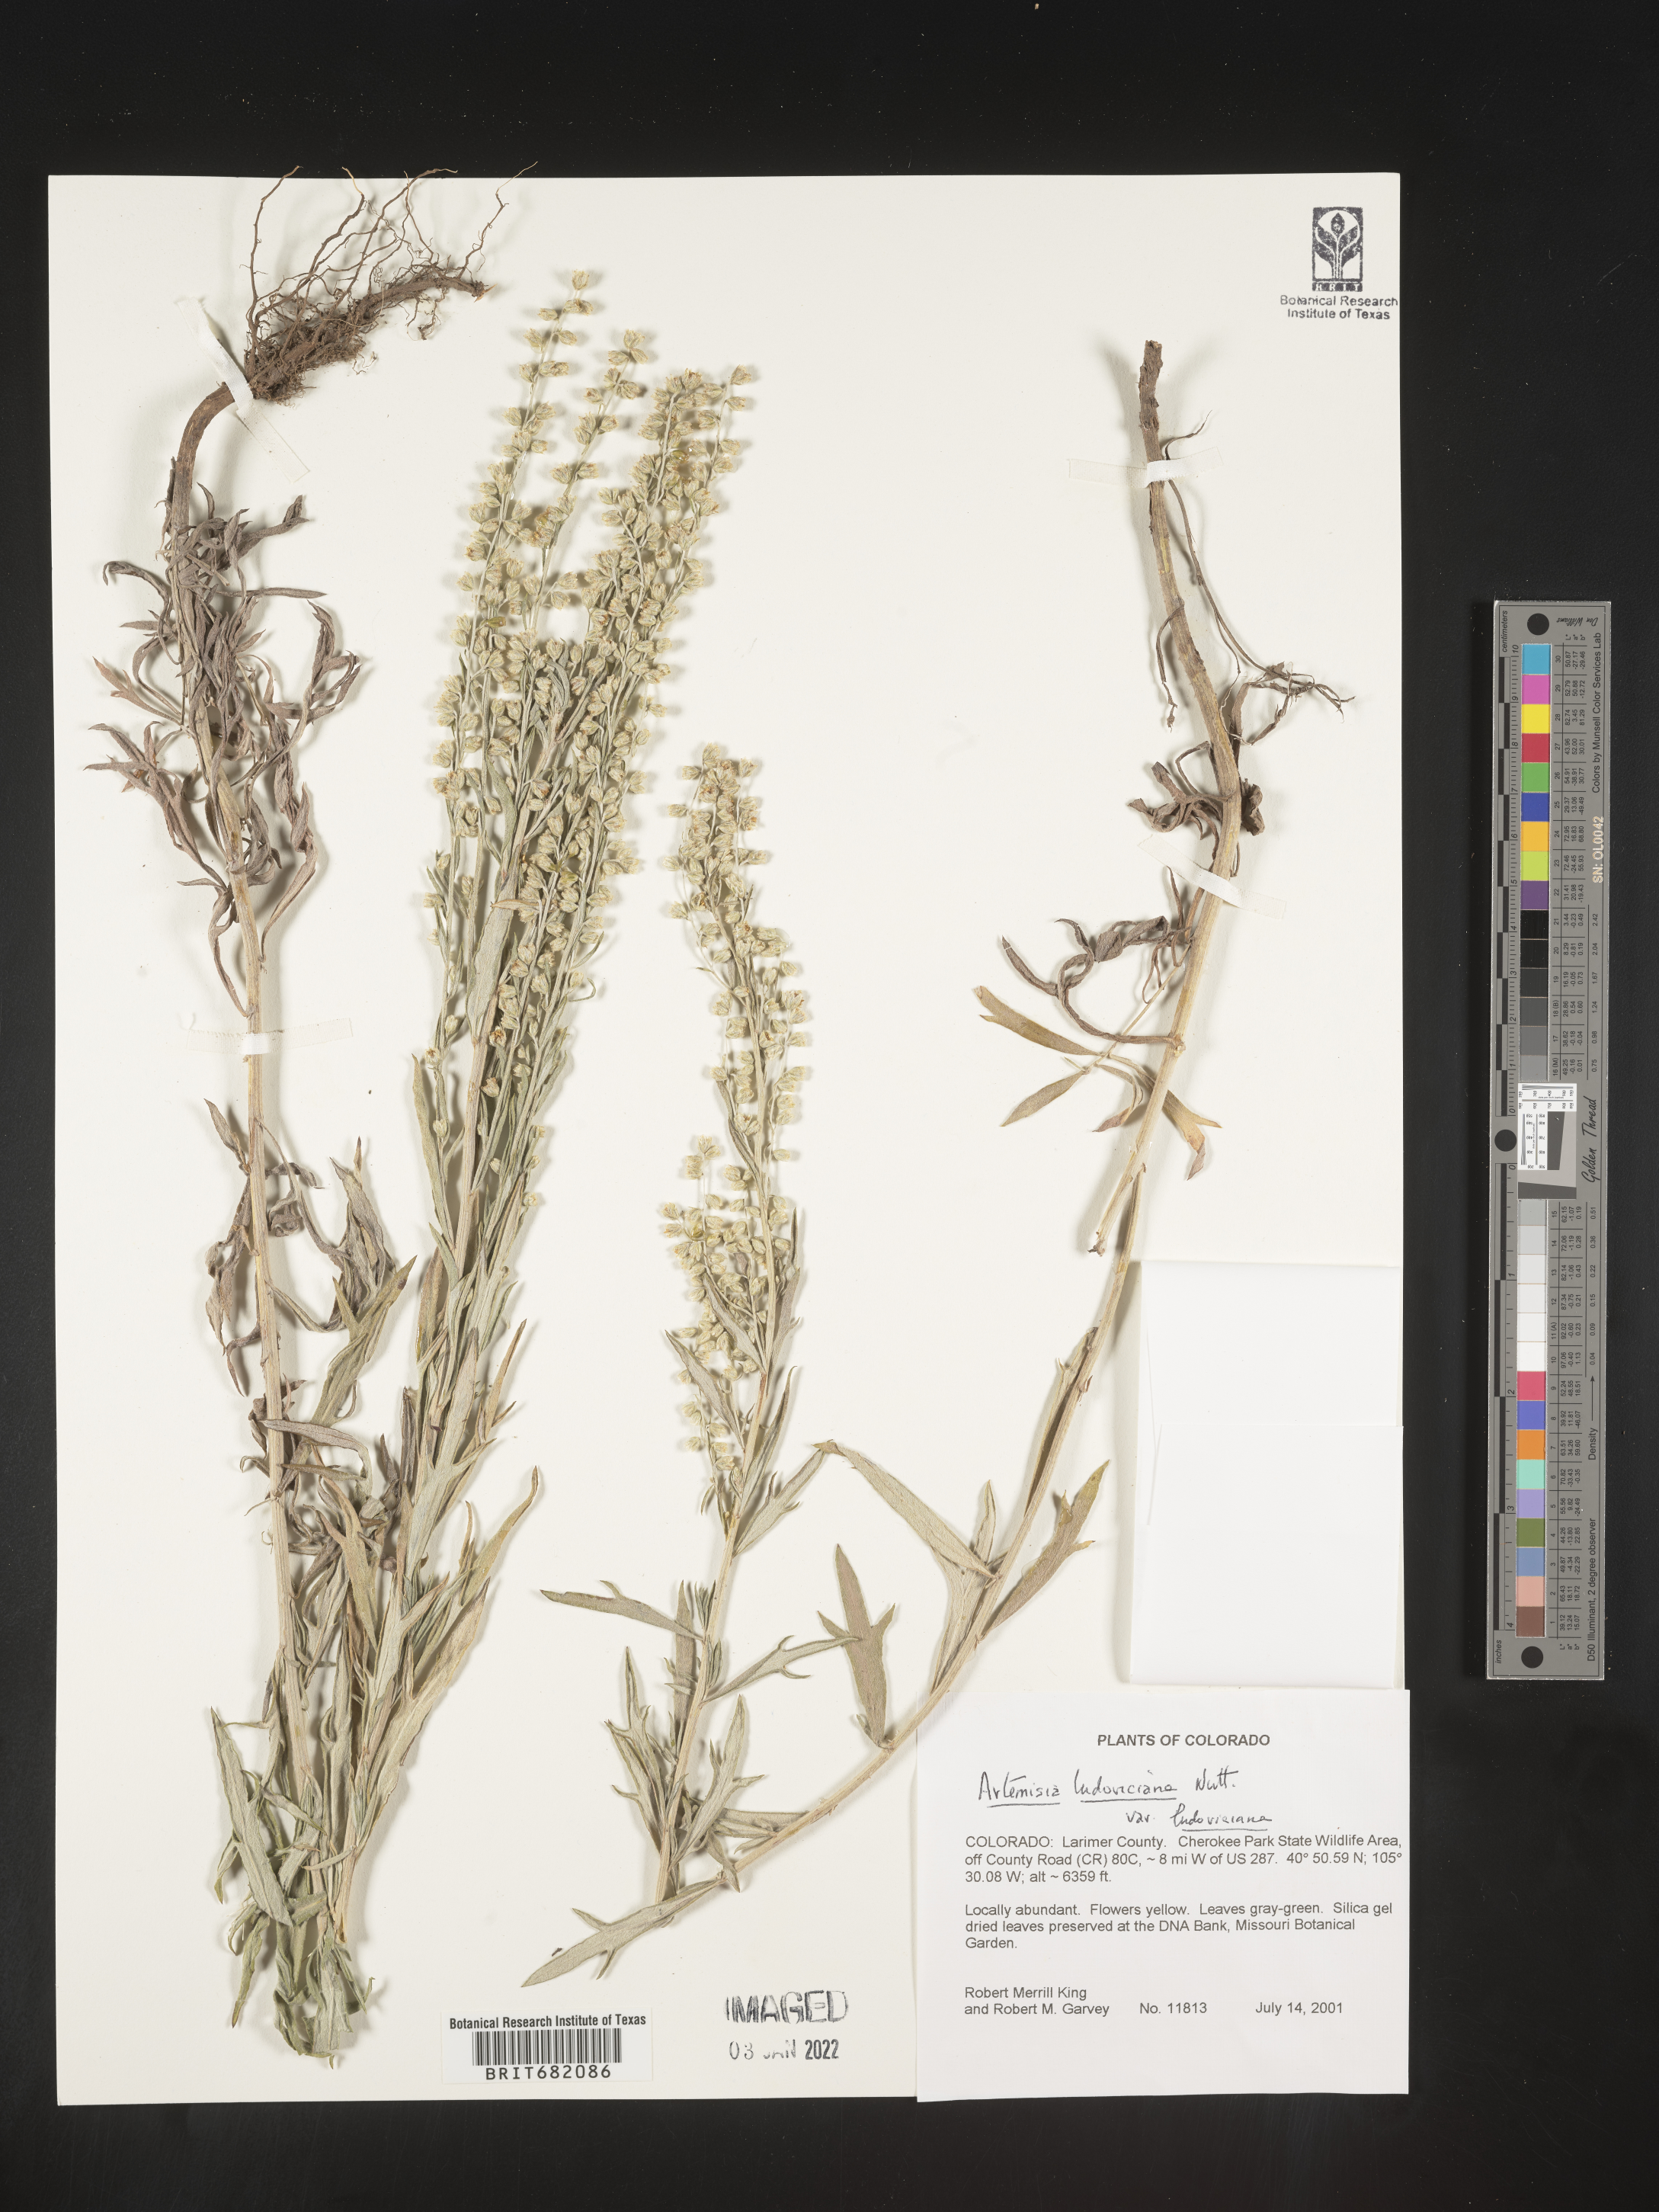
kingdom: Plantae
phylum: Tracheophyta
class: Magnoliopsida
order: Asterales
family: Asteraceae
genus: Artemisia
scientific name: Artemisia ludoviciana
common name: Western mugwort
